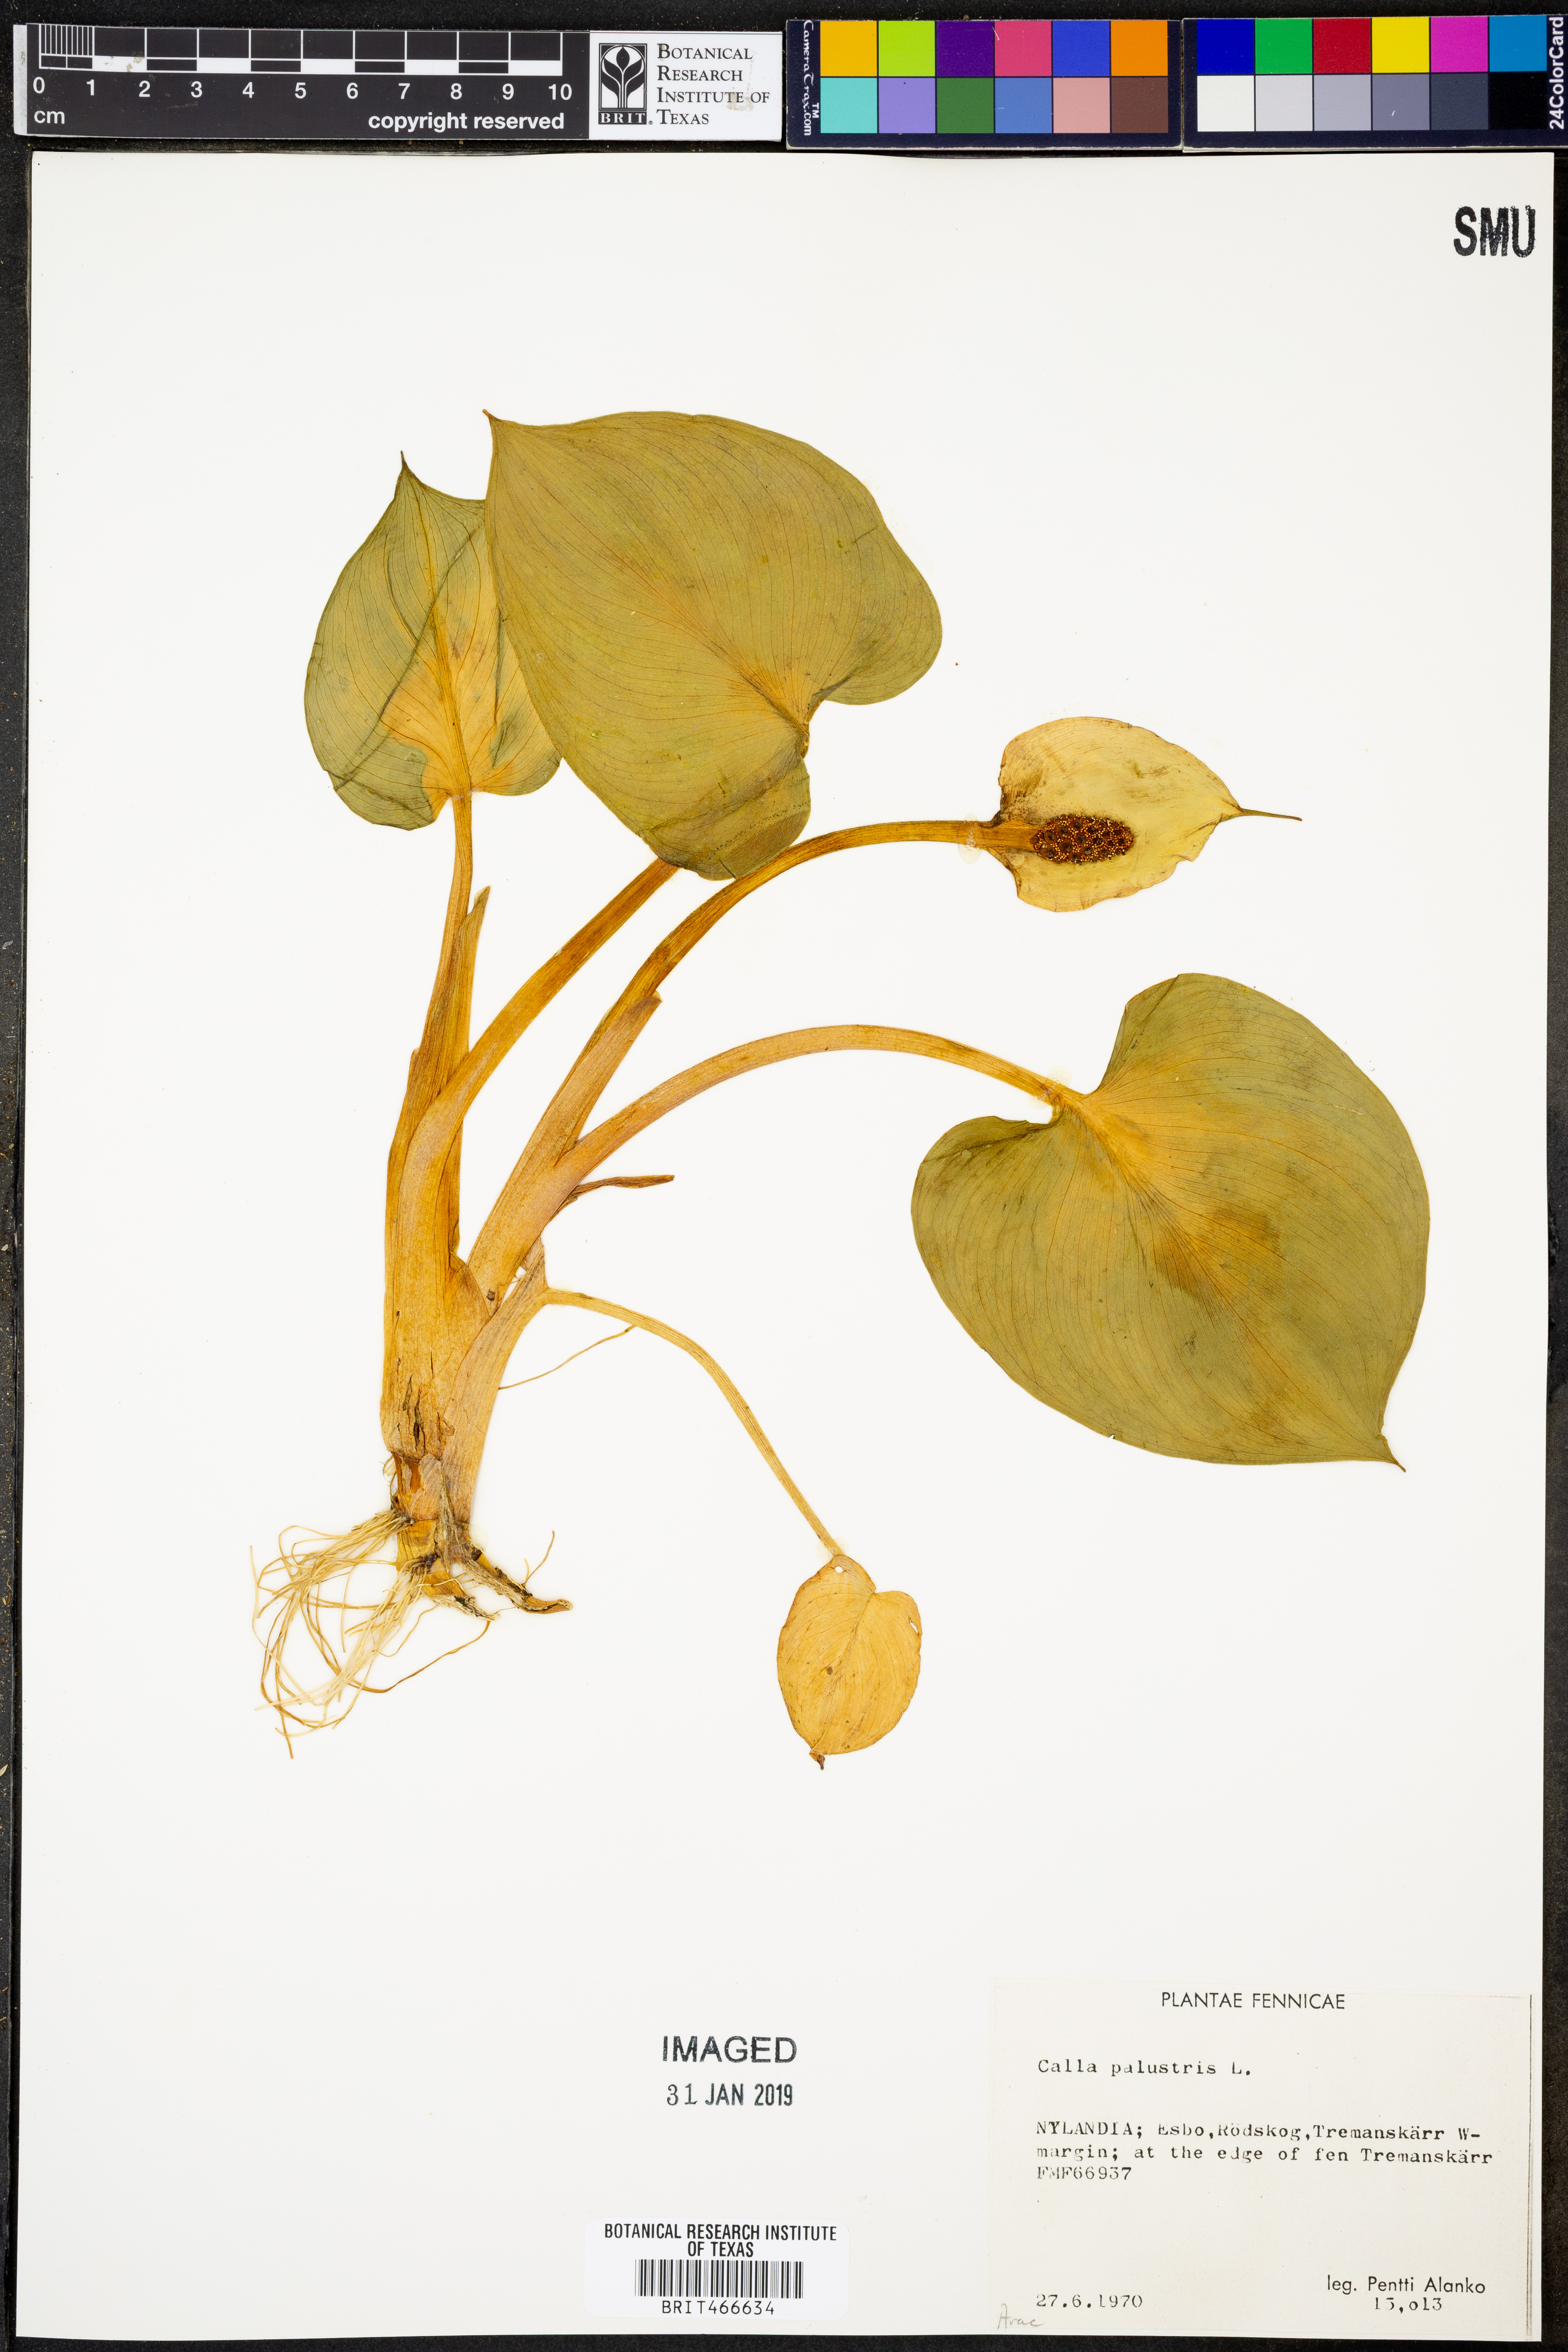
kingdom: Plantae
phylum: Tracheophyta
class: Liliopsida
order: Alismatales
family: Araceae
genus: Calla
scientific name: Calla palustris
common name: Bog arum
